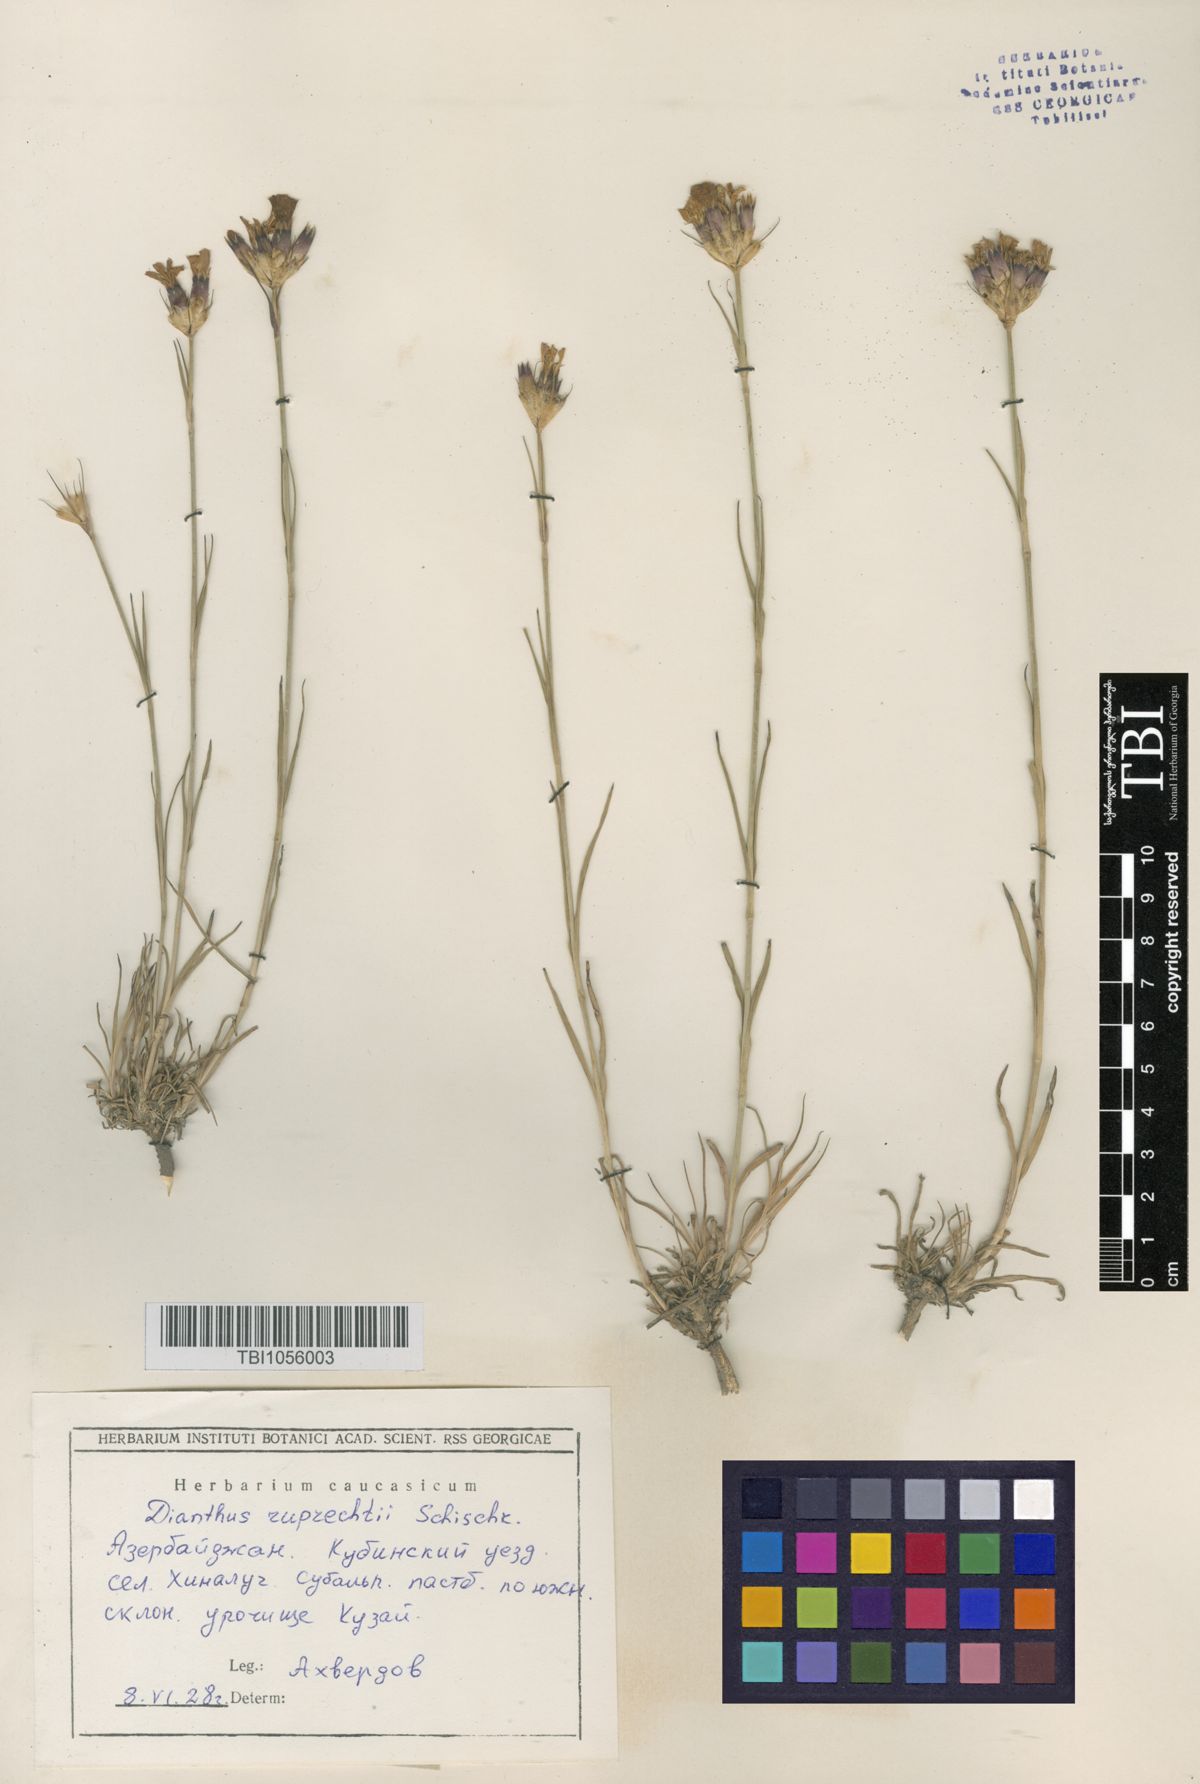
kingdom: Plantae
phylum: Tracheophyta
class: Magnoliopsida
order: Caryophyllales
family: Caryophyllaceae
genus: Dianthus
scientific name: Dianthus ruprechtii
